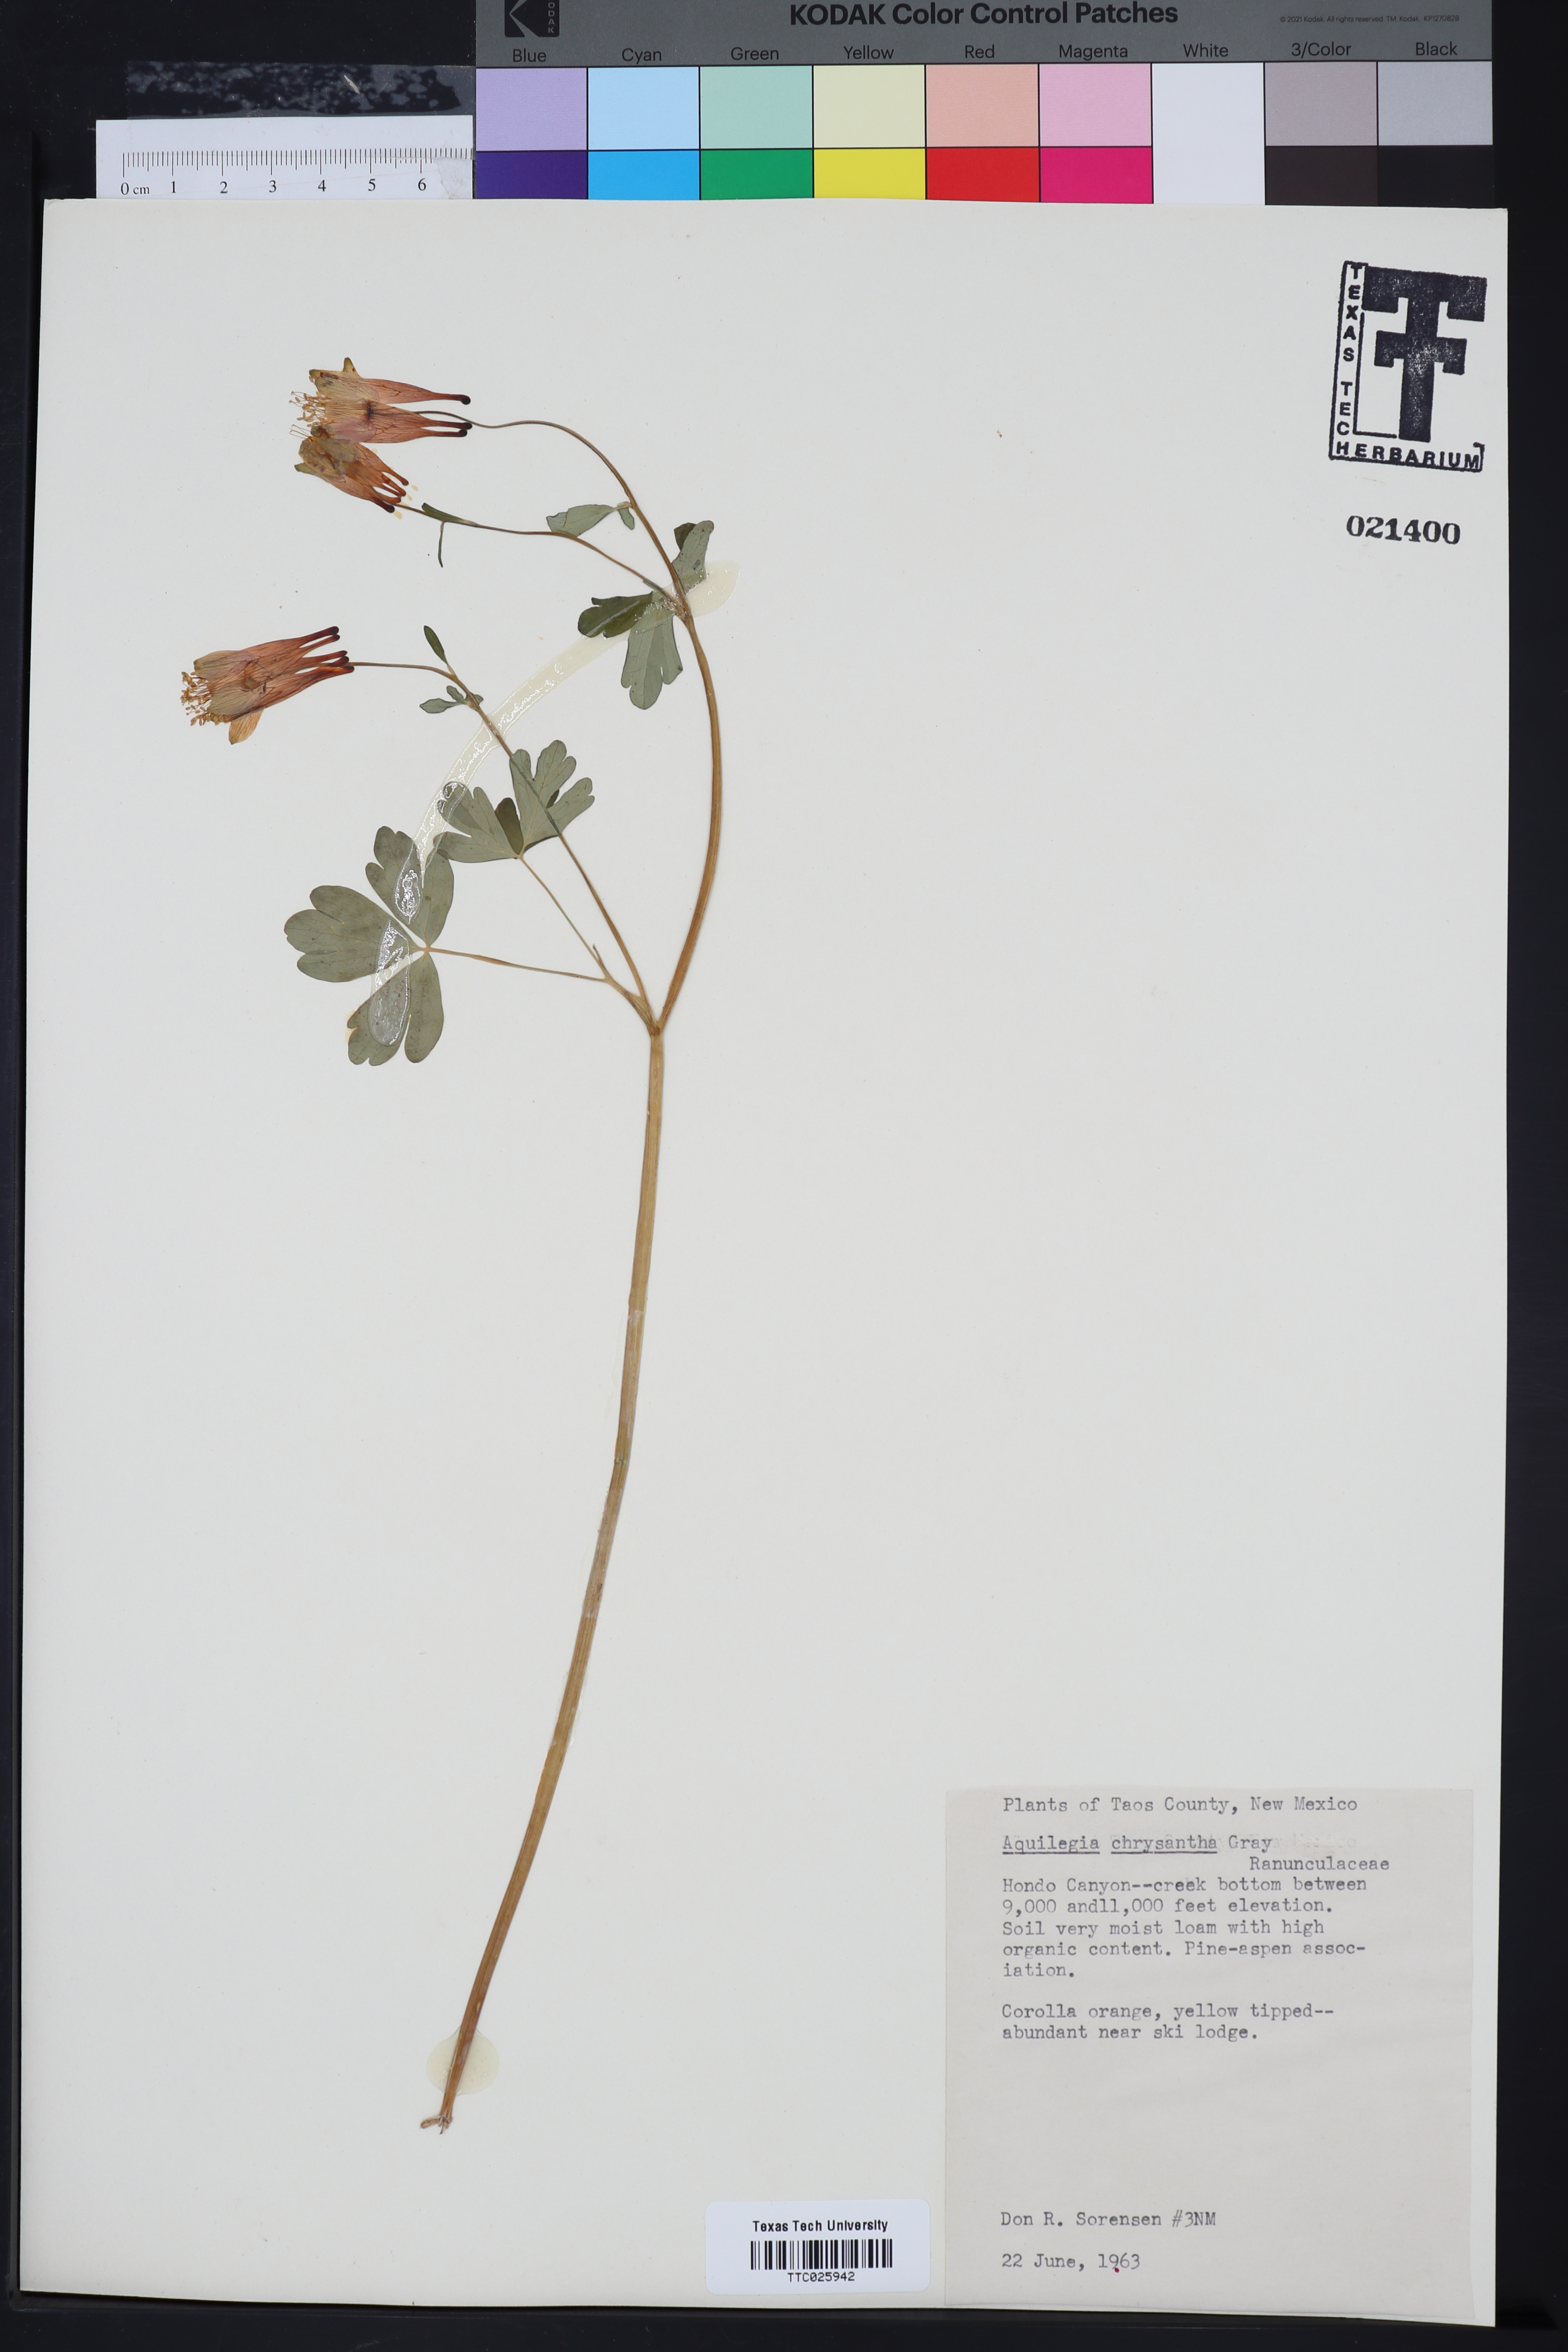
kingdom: Plantae
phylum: Tracheophyta
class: Magnoliopsida
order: Ranunculales
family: Ranunculaceae
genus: Aquilegia
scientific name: Aquilegia chrysantha
